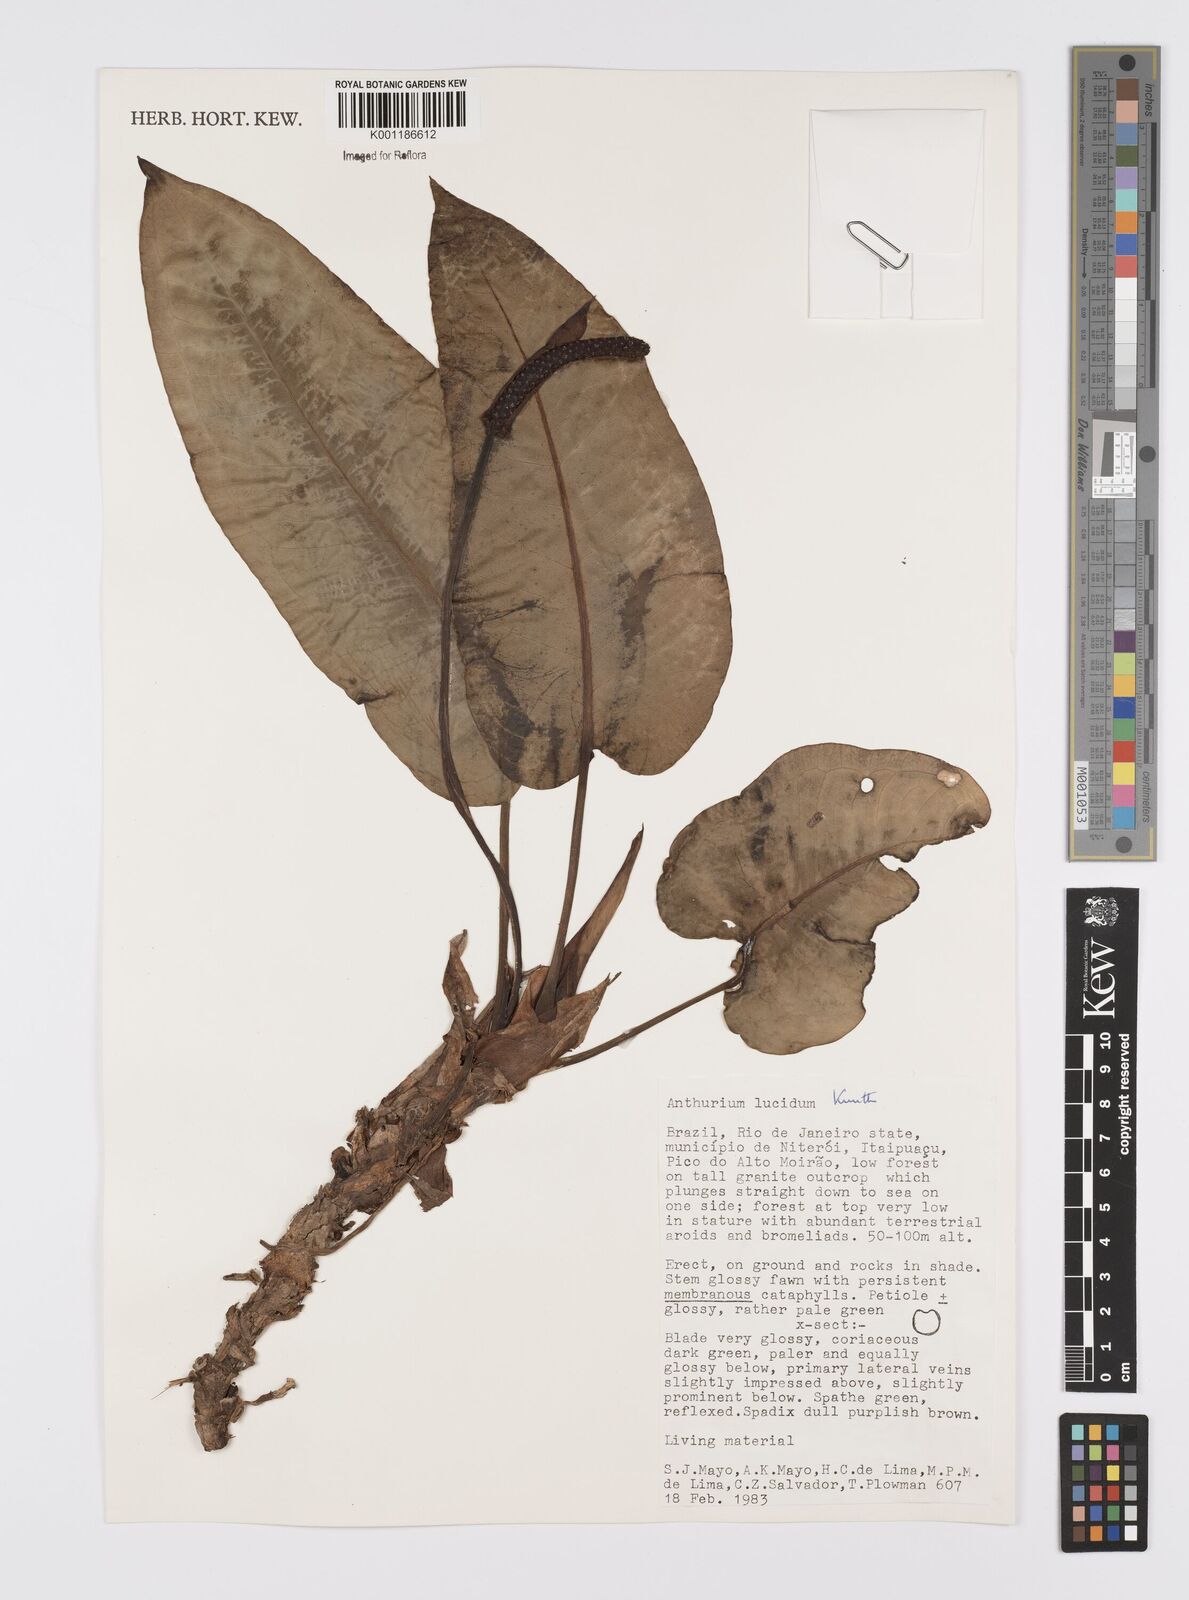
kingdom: Plantae
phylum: Tracheophyta
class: Liliopsida
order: Alismatales
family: Araceae
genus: Anthurium
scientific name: Anthurium lucidum
